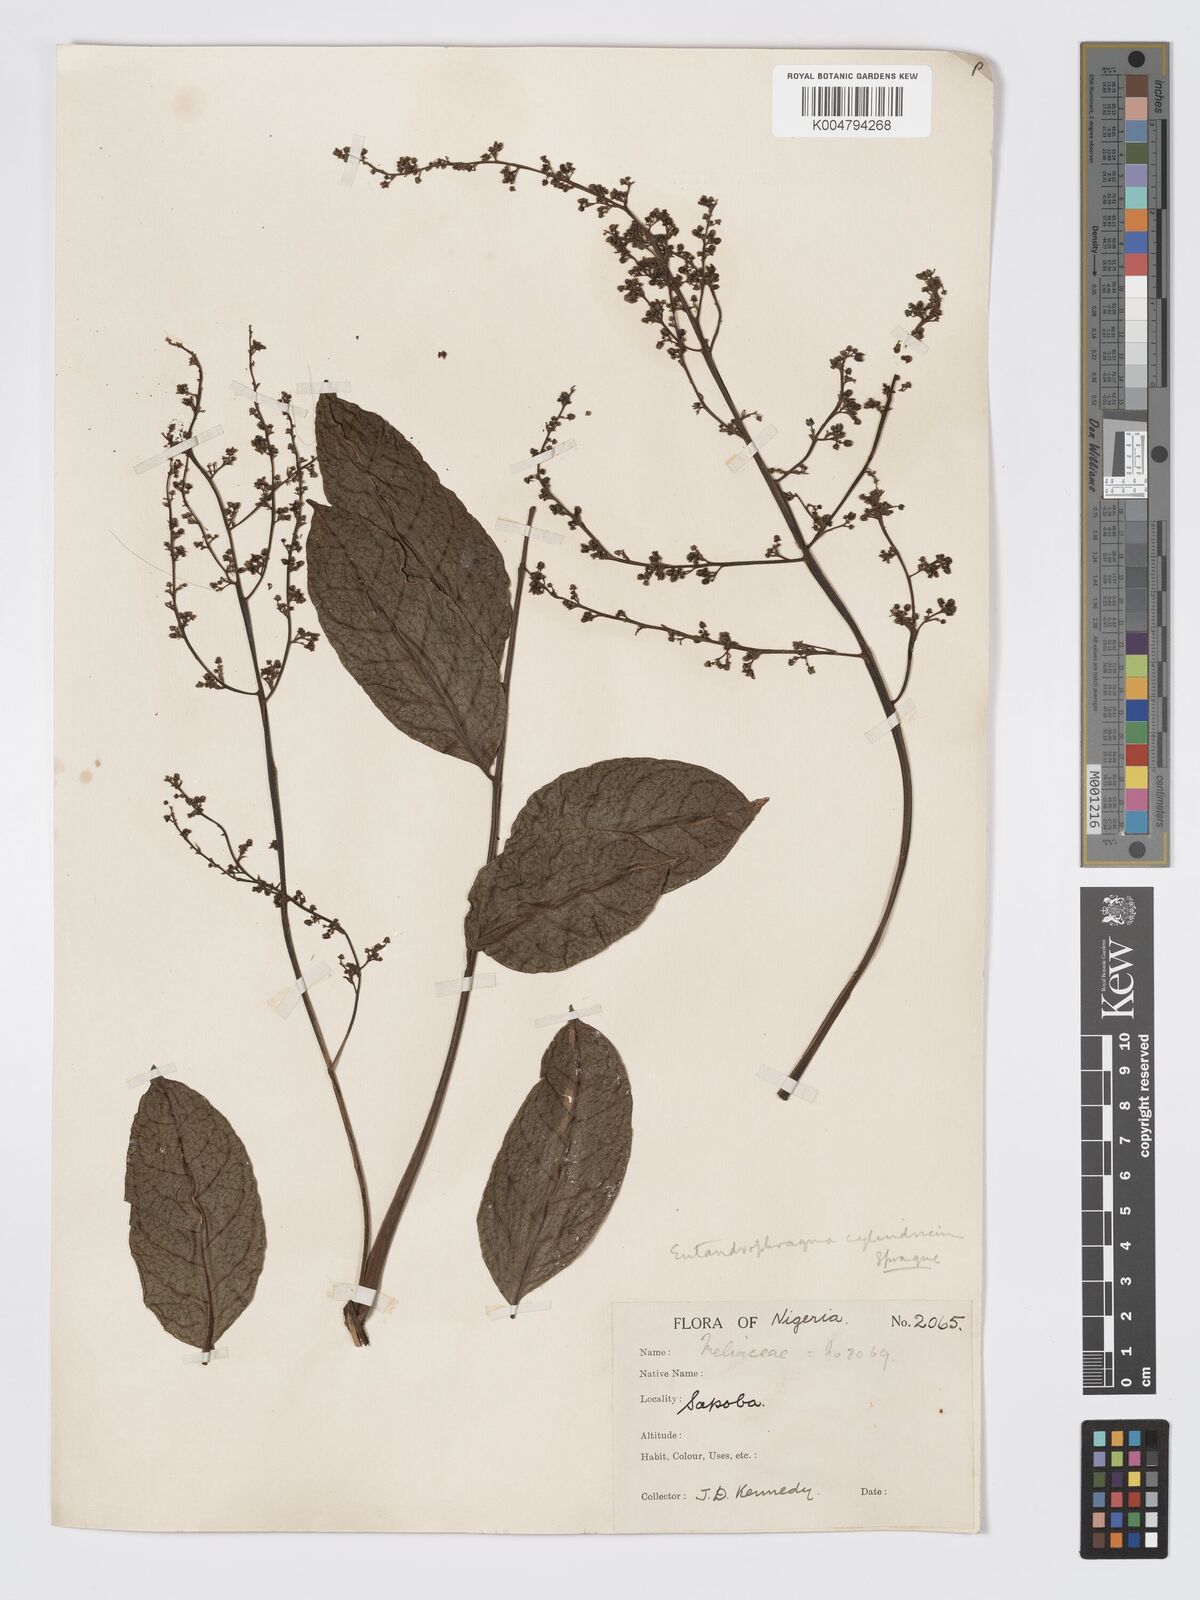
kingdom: Plantae
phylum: Tracheophyta
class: Magnoliopsida
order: Sapindales
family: Meliaceae
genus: Entandrophragma
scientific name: Entandrophragma cylindricum
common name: Sapele
